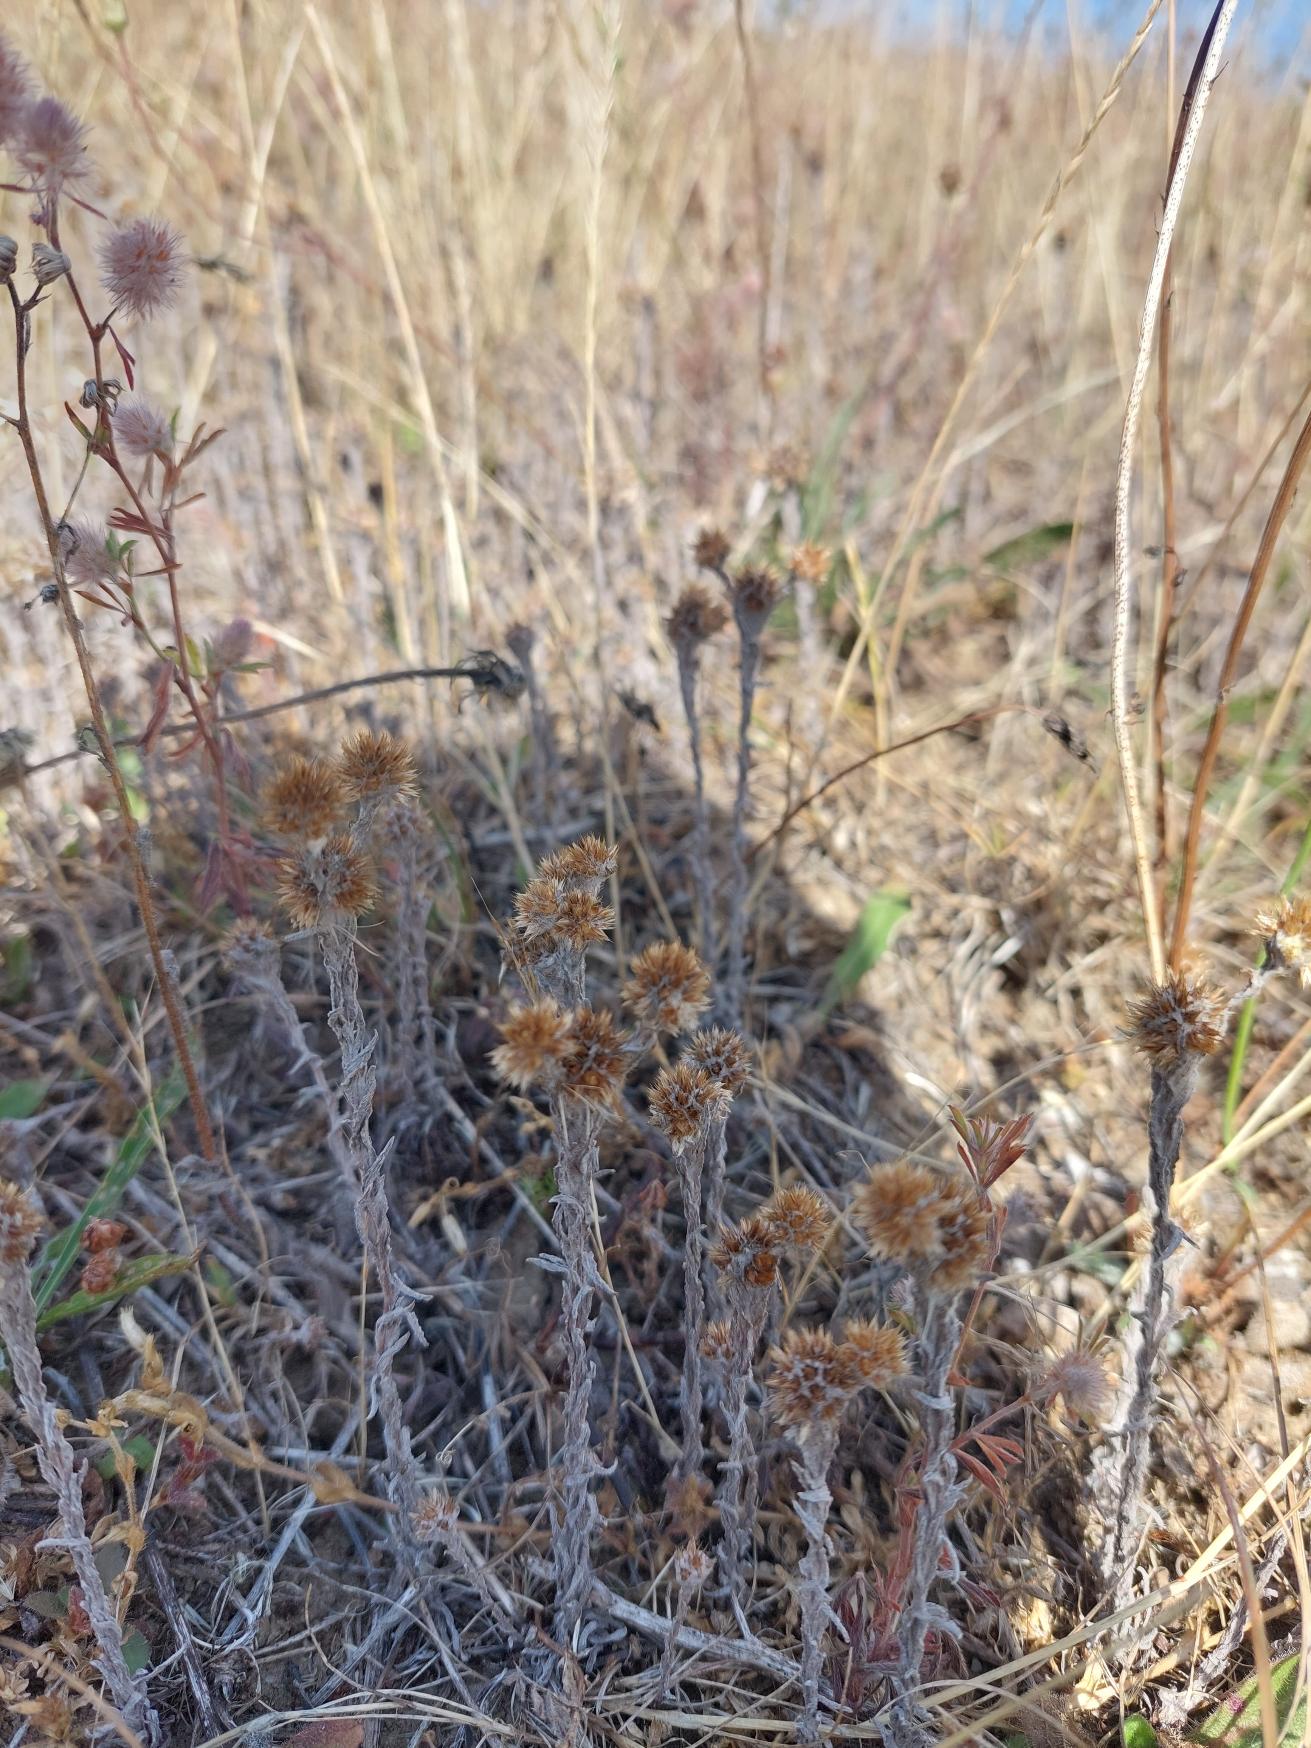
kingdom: Plantae
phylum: Tracheophyta
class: Magnoliopsida
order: Asterales
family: Asteraceae
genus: Filago
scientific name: Filago germanica
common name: Kugle-museurt
